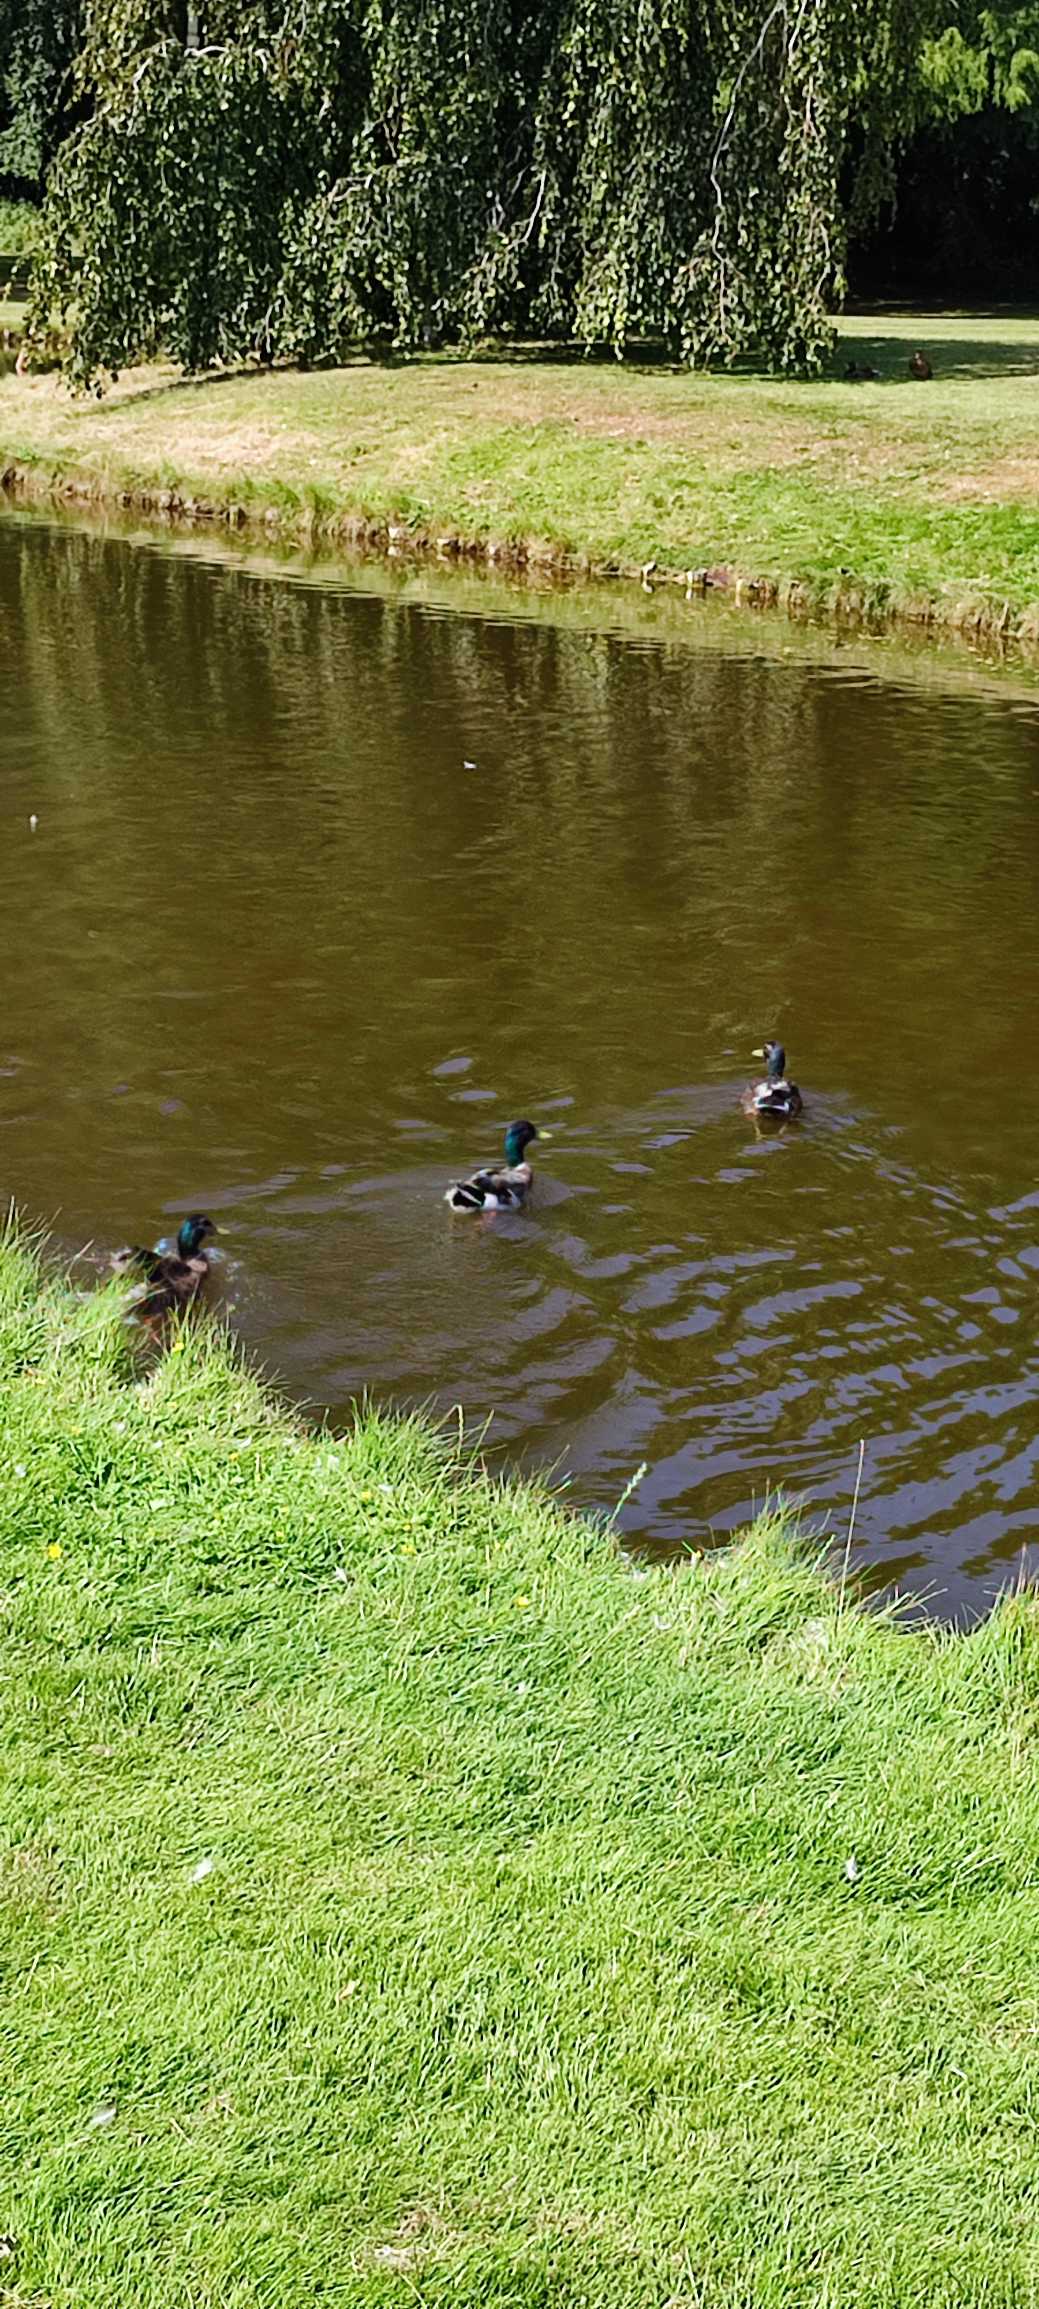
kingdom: Animalia
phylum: Chordata
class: Aves
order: Anseriformes
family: Anatidae
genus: Anas
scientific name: Anas platyrhynchos
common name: Gråand
